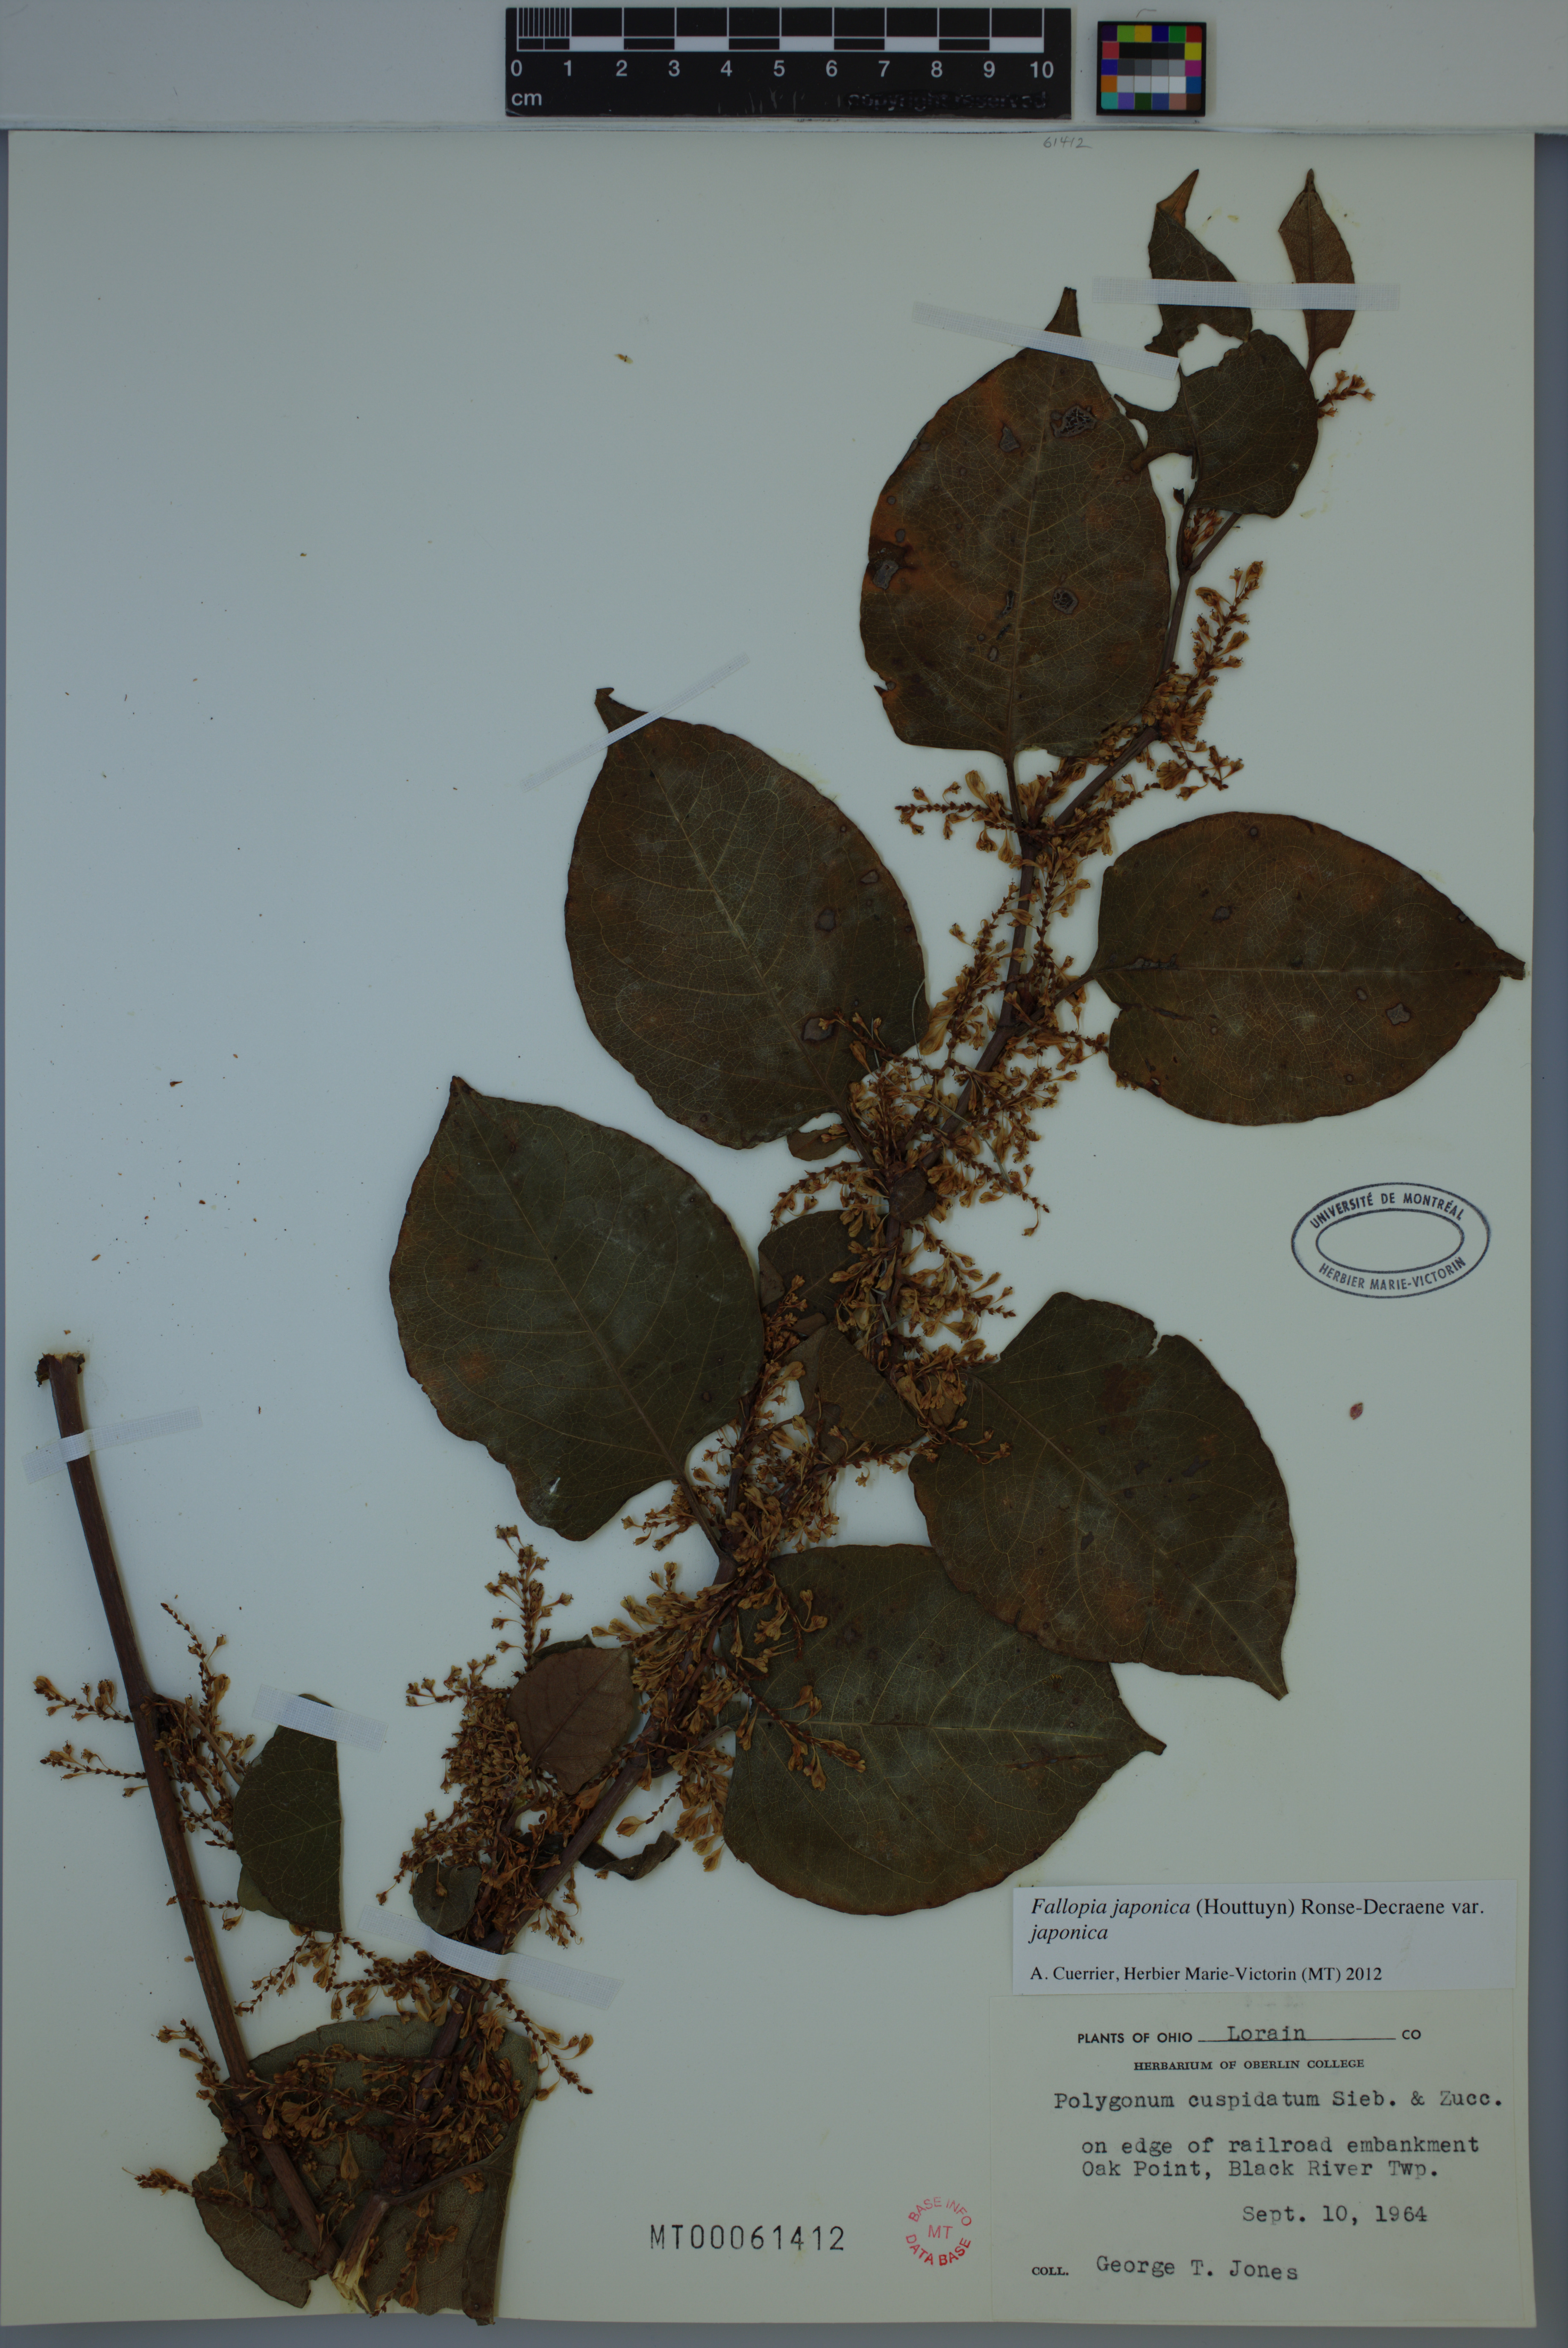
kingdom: Plantae
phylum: Tracheophyta
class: Magnoliopsida
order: Caryophyllales
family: Polygonaceae
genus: Reynoutria
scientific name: Reynoutria japonica
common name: Japanese knotweed
